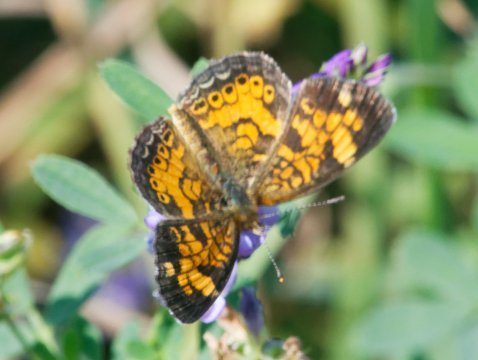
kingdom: Animalia
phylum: Arthropoda
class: Insecta
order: Lepidoptera
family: Nymphalidae
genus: Phyciodes
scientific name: Phyciodes
